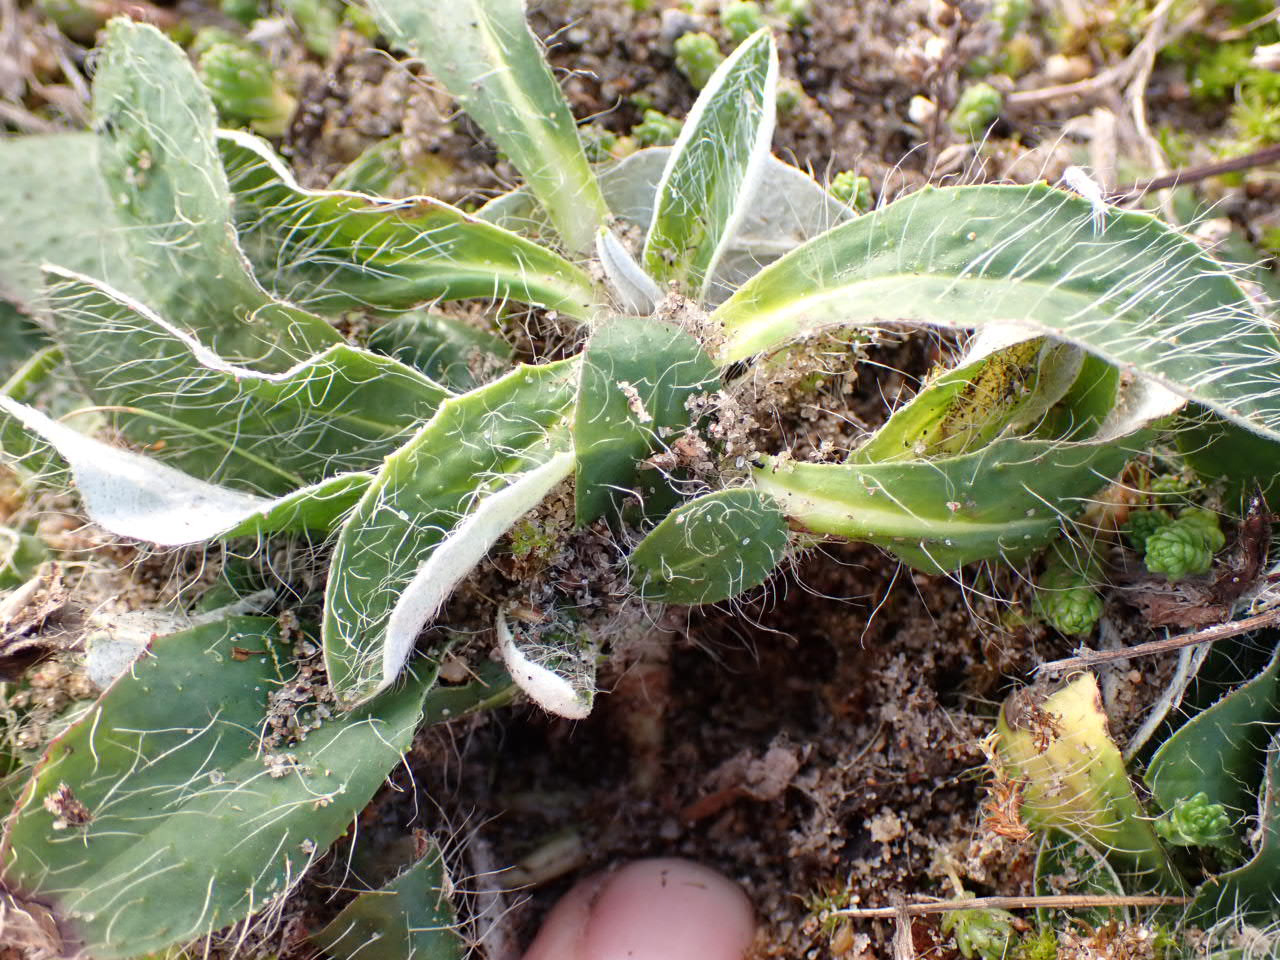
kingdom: Plantae
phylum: Tracheophyta
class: Magnoliopsida
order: Asterales
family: Asteraceae
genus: Pilosella
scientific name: Pilosella peleteriana
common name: Klit-høgeurt
